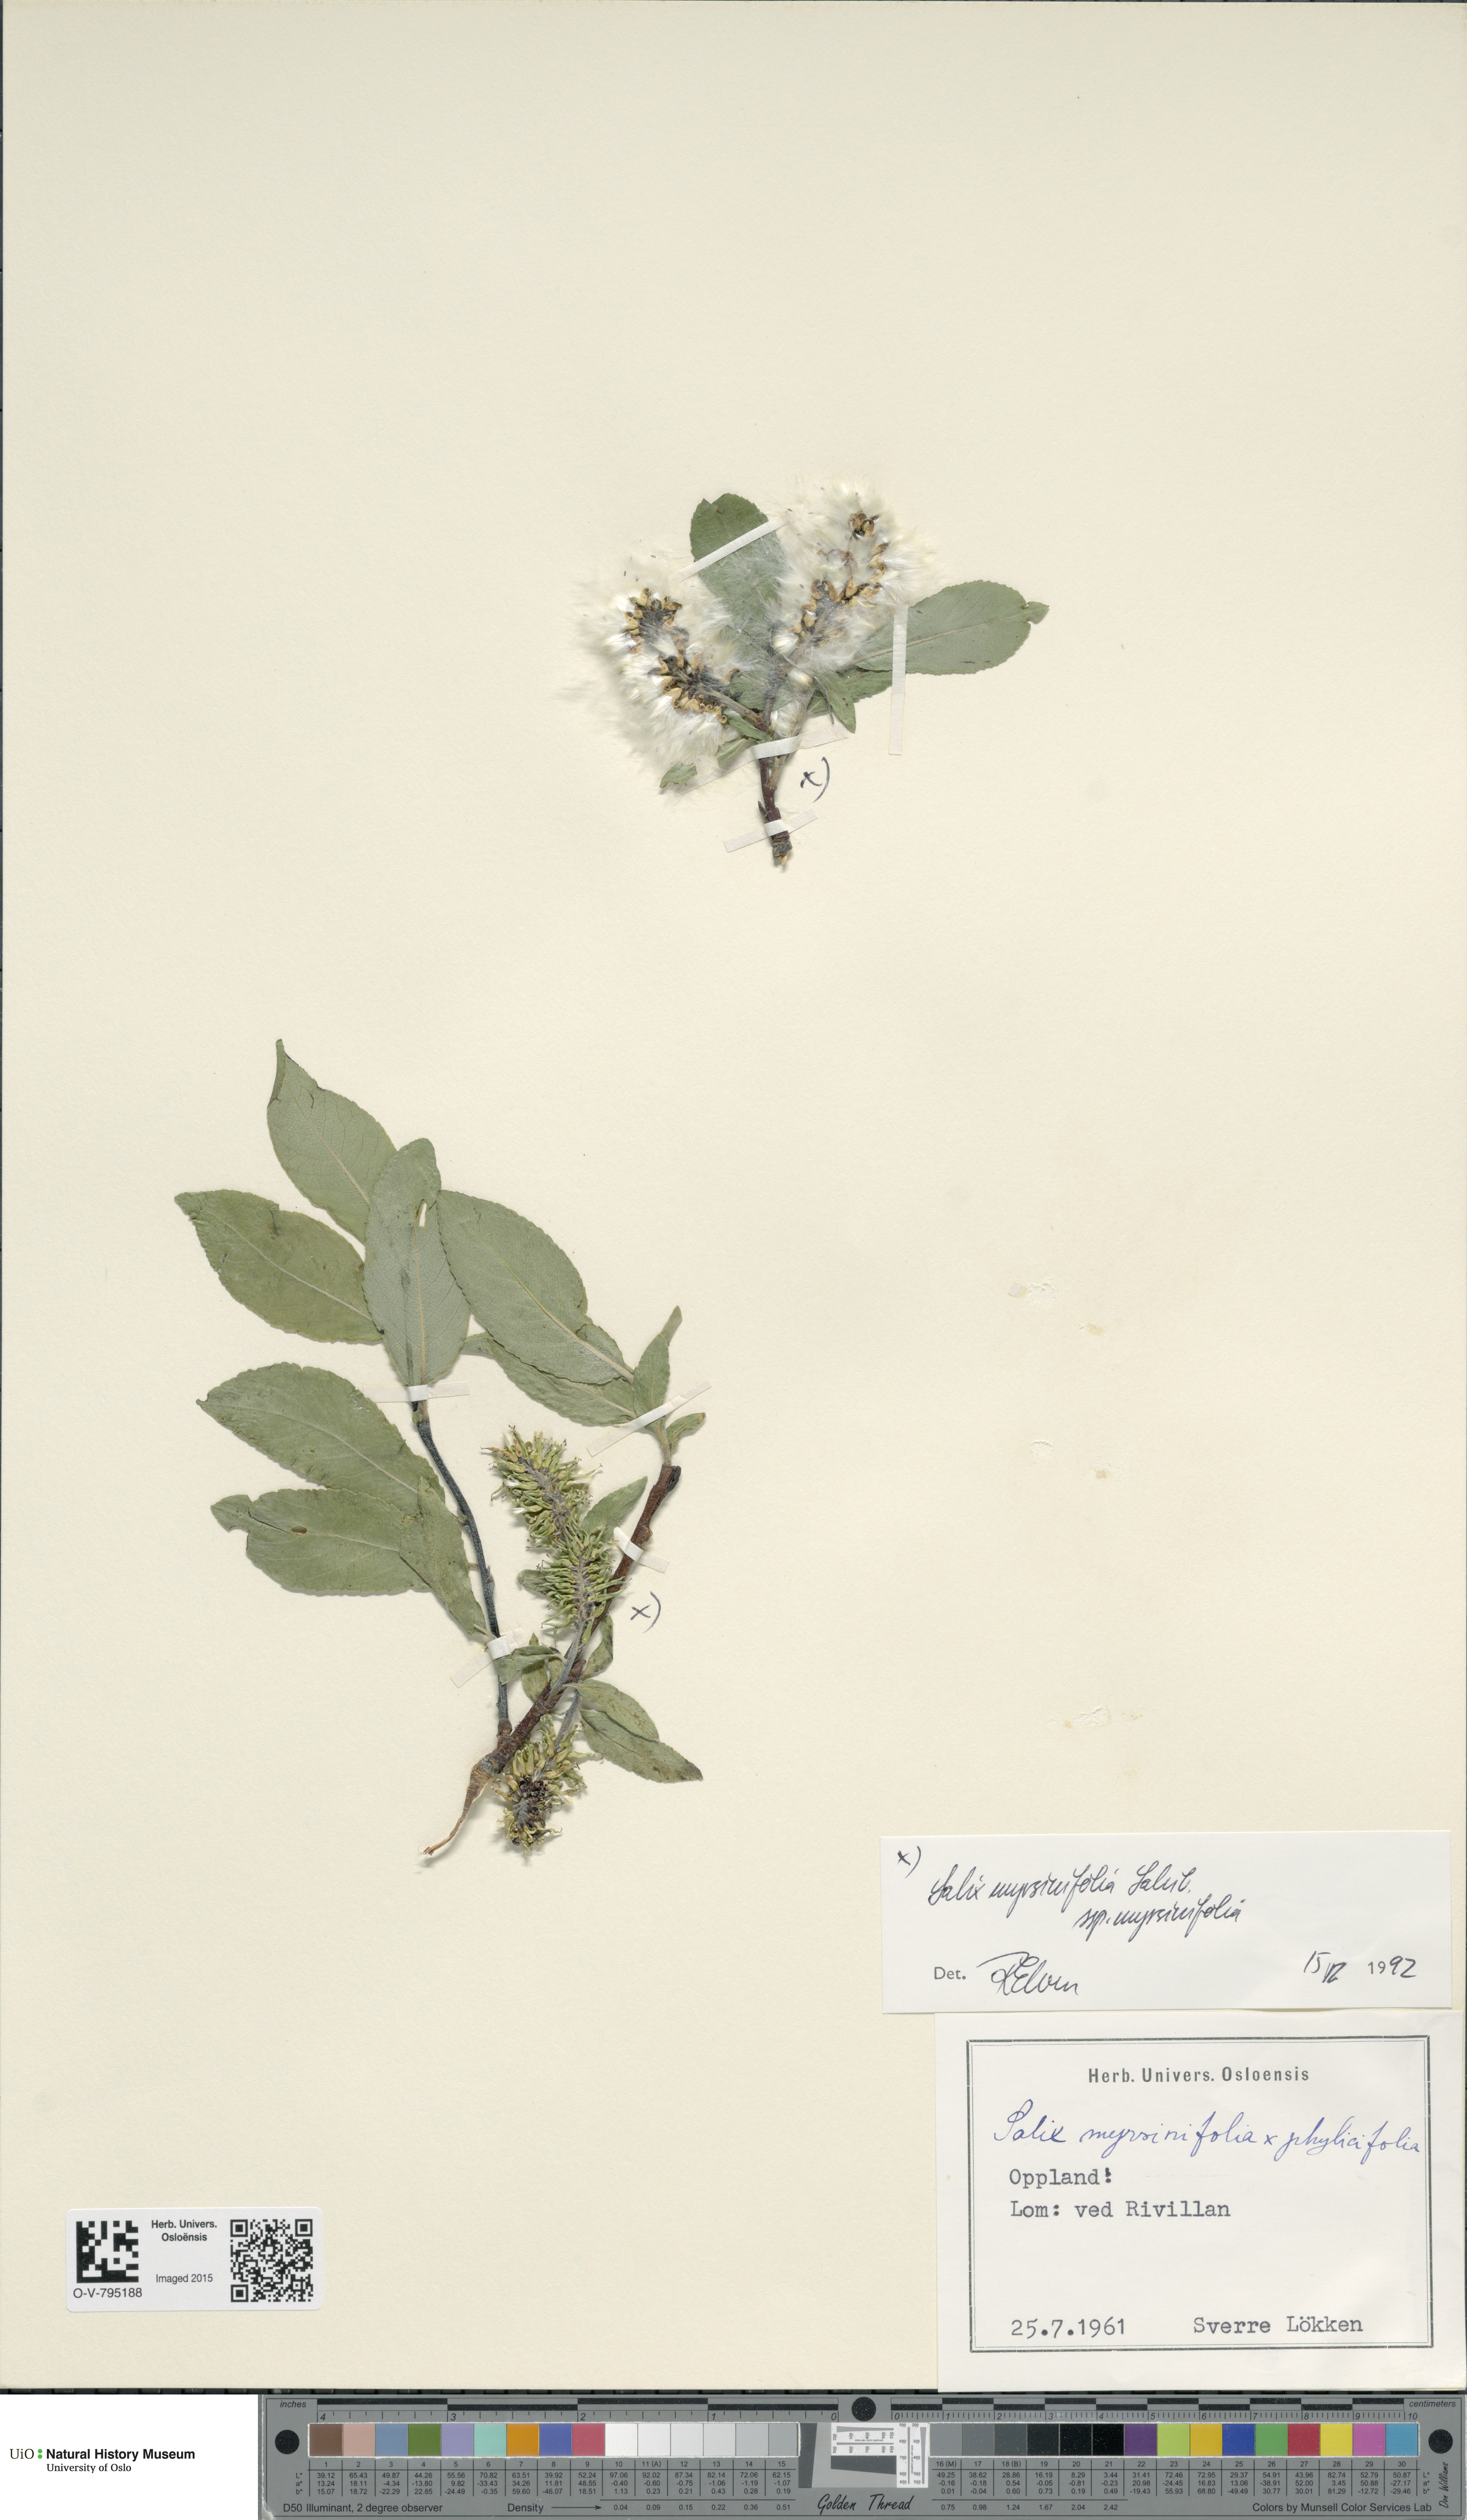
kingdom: Plantae
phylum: Tracheophyta
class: Magnoliopsida
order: Malpighiales
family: Salicaceae
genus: Salix
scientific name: Salix myrsinifolia
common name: Dark-leaved willow
